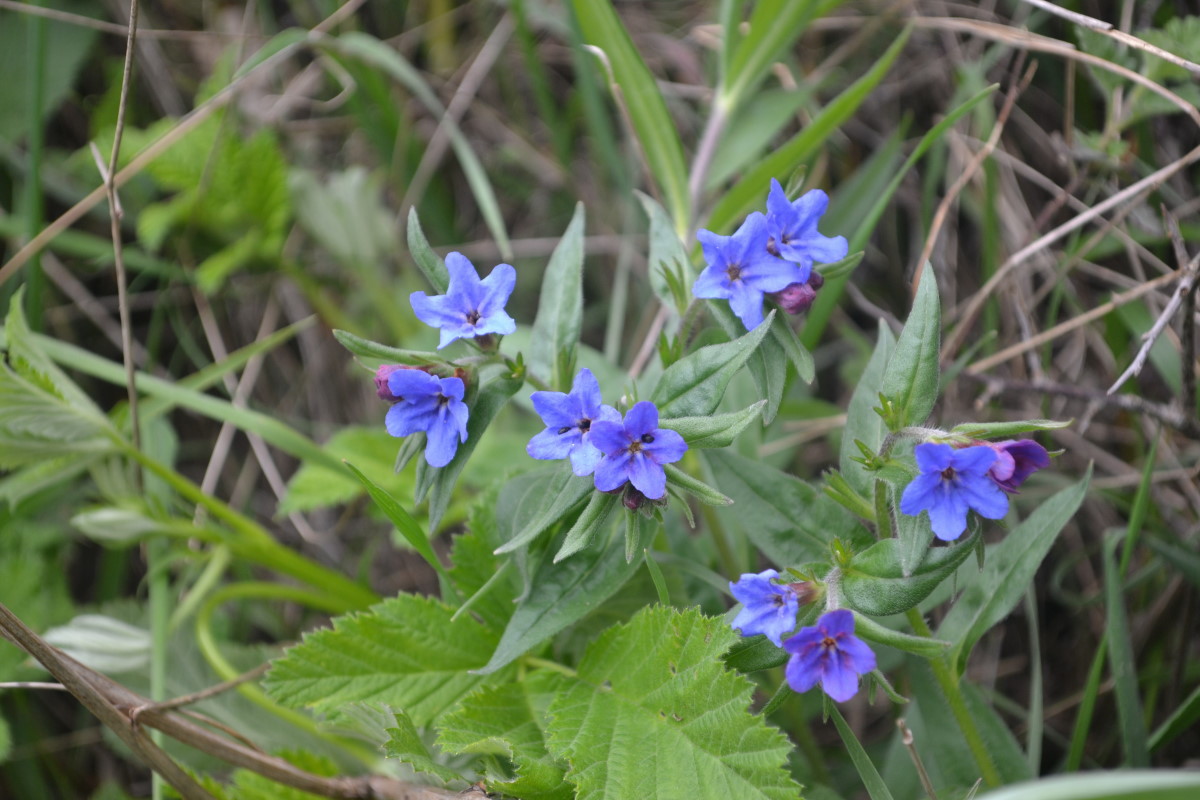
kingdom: Plantae
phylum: Tracheophyta
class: Magnoliopsida
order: Boraginales
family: Boraginaceae
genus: Aegonychon
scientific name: Aegonychon purpurocaeruleum
